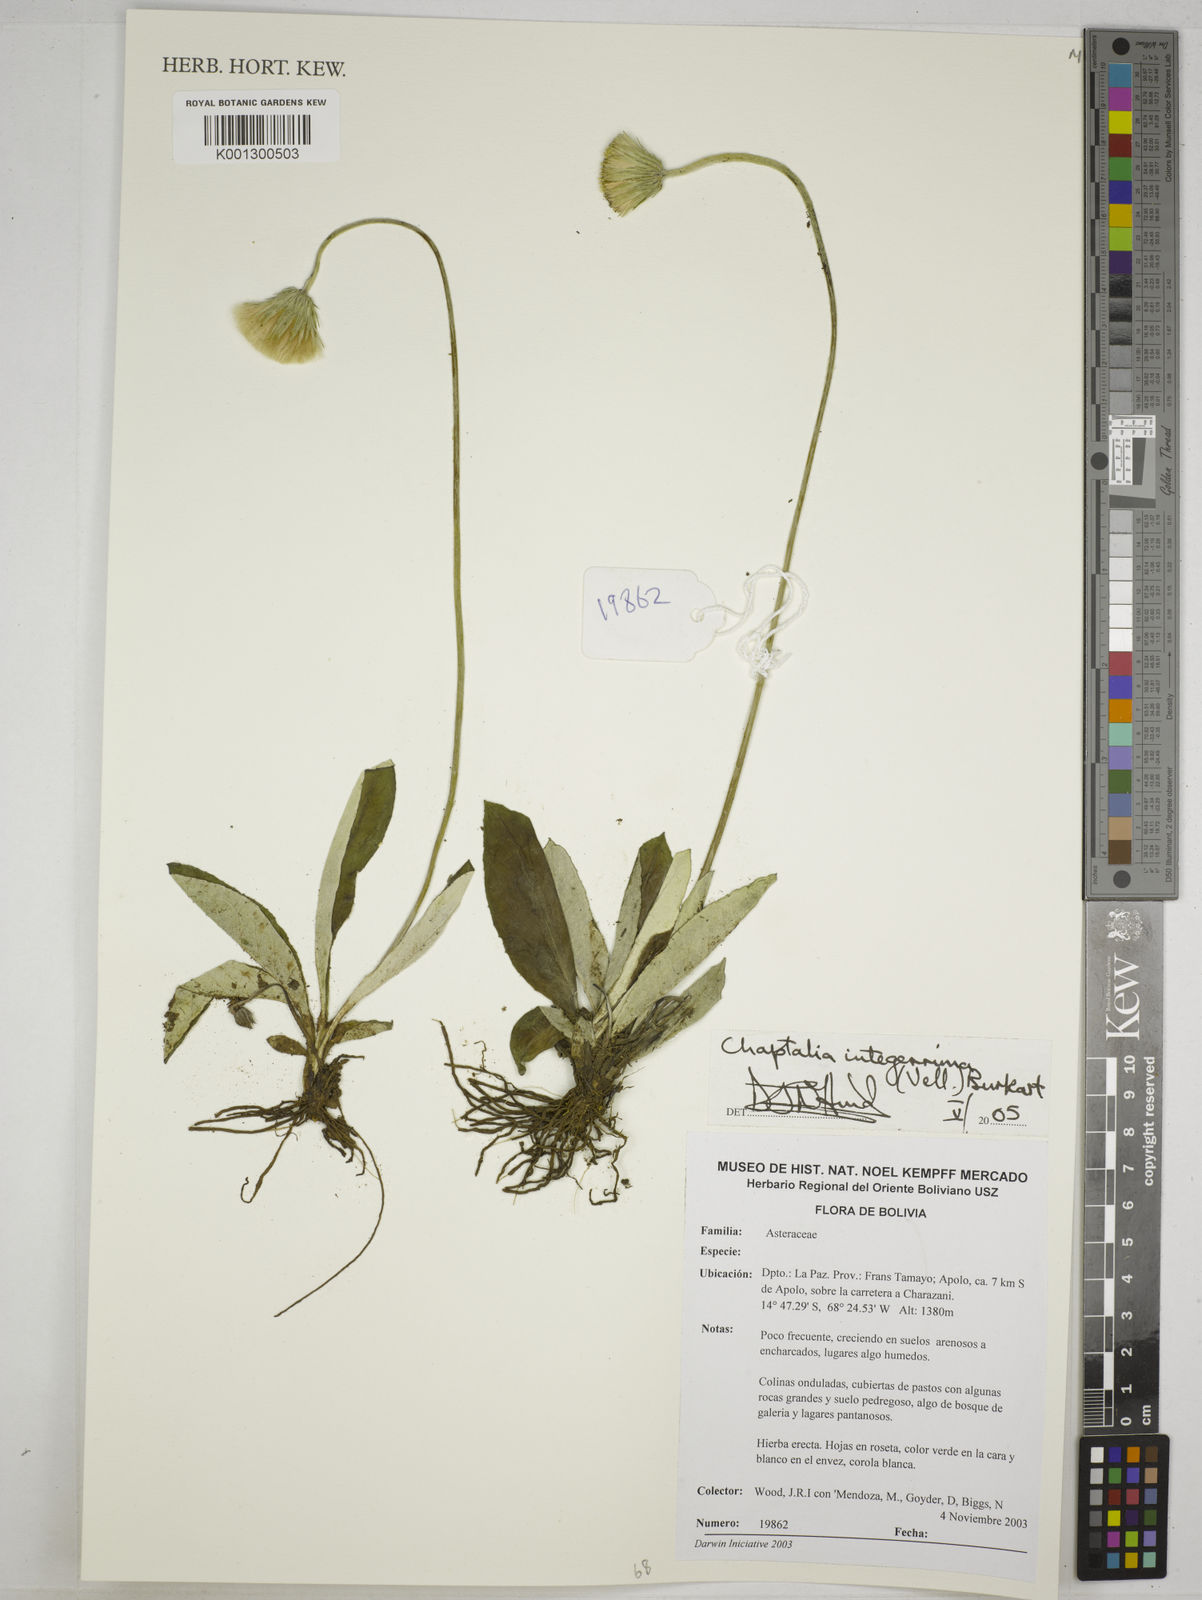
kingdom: Plantae
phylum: Tracheophyta
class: Magnoliopsida
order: Asterales
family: Asteraceae
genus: Chaptalia
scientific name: Chaptalia integerrima
